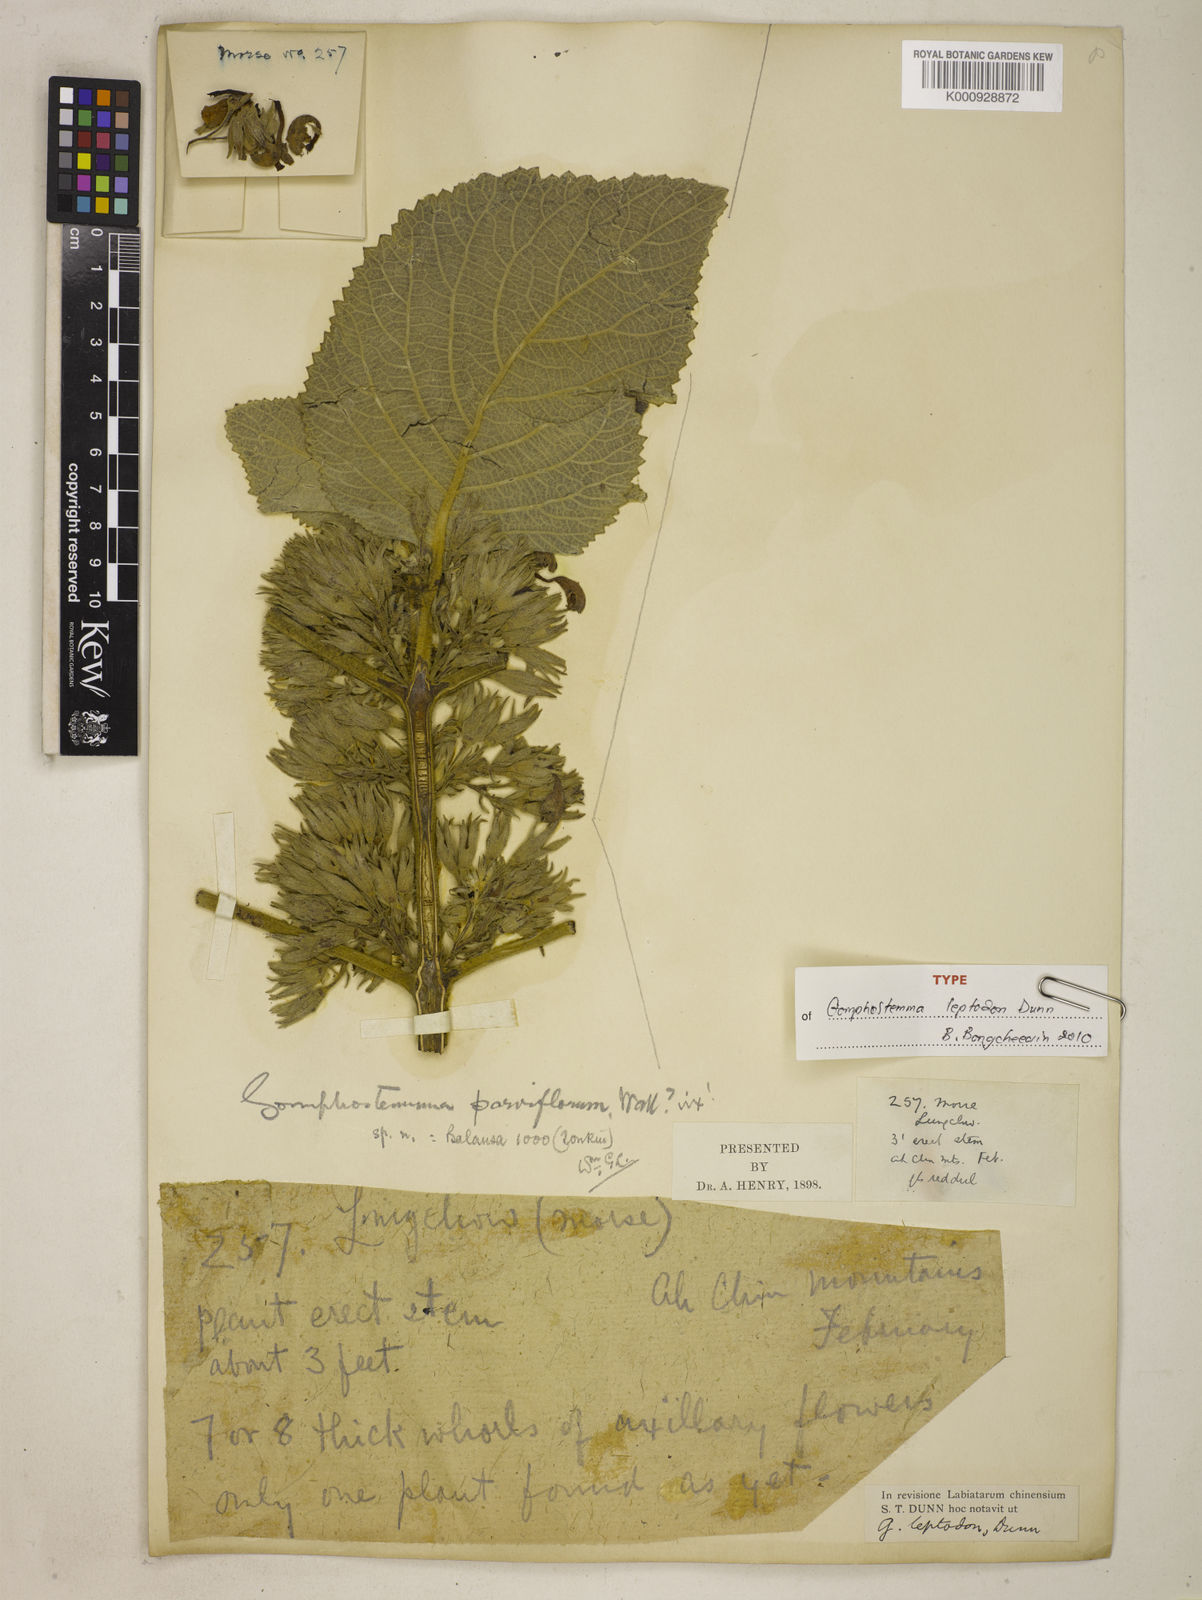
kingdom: Plantae
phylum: Tracheophyta
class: Magnoliopsida
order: Lamiales
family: Lamiaceae
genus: Gomphostemma
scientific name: Gomphostemma leptodon
